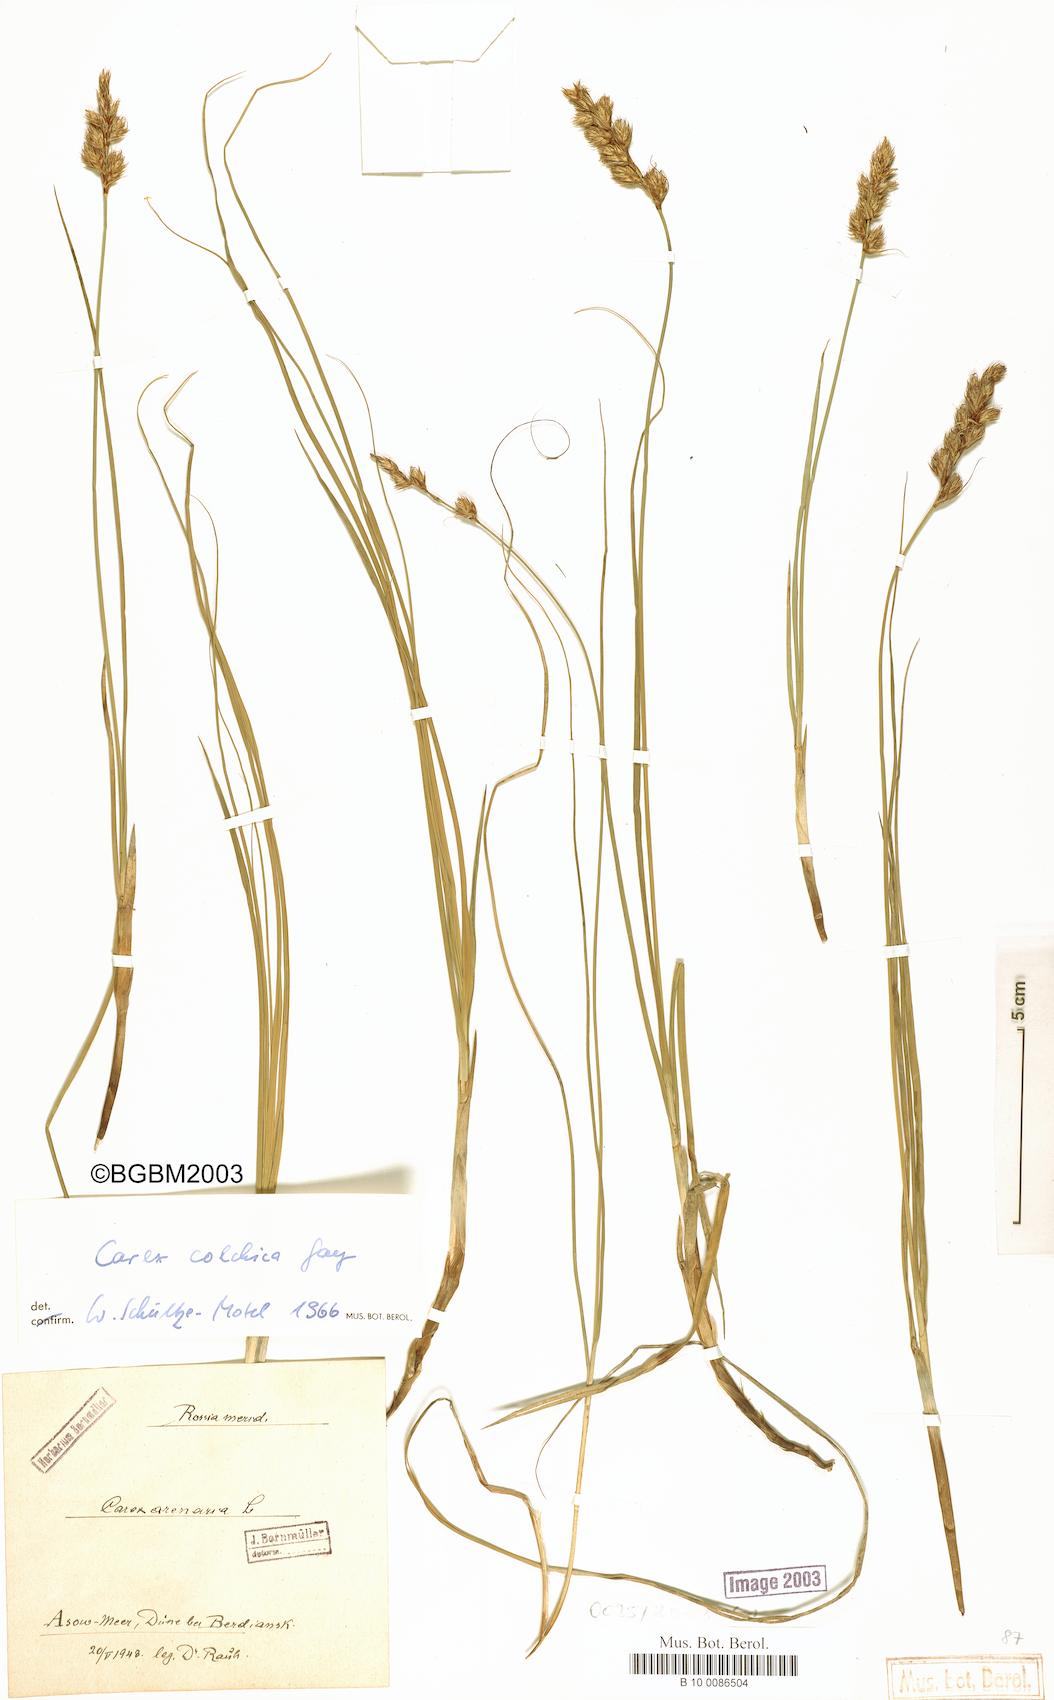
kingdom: Plantae
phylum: Tracheophyta
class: Liliopsida
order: Poales
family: Cyperaceae
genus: Carex
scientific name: Carex colchica
